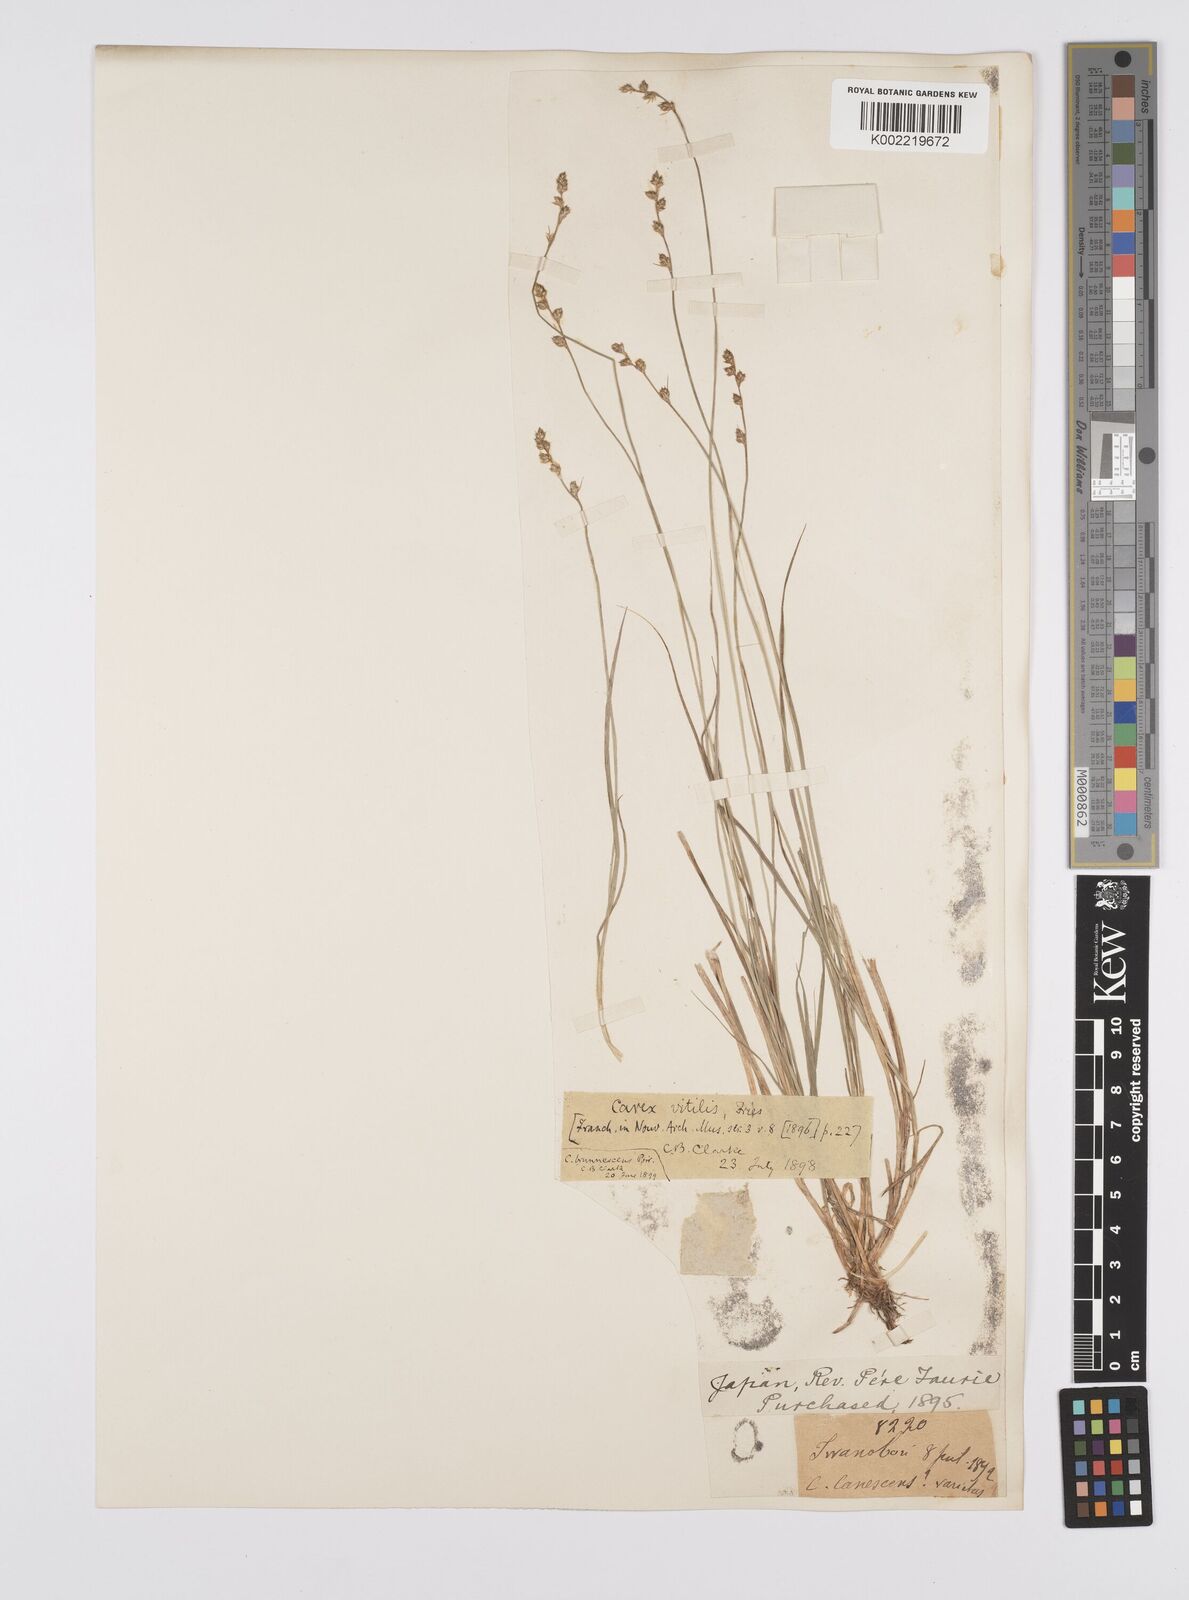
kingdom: Plantae
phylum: Tracheophyta
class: Liliopsida
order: Poales
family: Cyperaceae
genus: Carex
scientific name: Carex brunnescens
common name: Brown sedge
